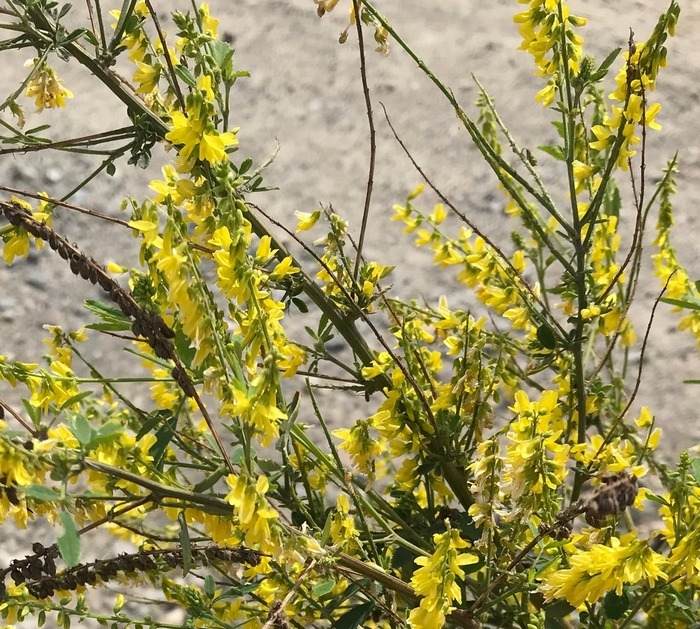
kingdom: Plantae
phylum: Tracheophyta
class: Magnoliopsida
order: Fabales
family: Fabaceae
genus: Melilotus
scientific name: Melilotus officinalis
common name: Mark-stenkløver
